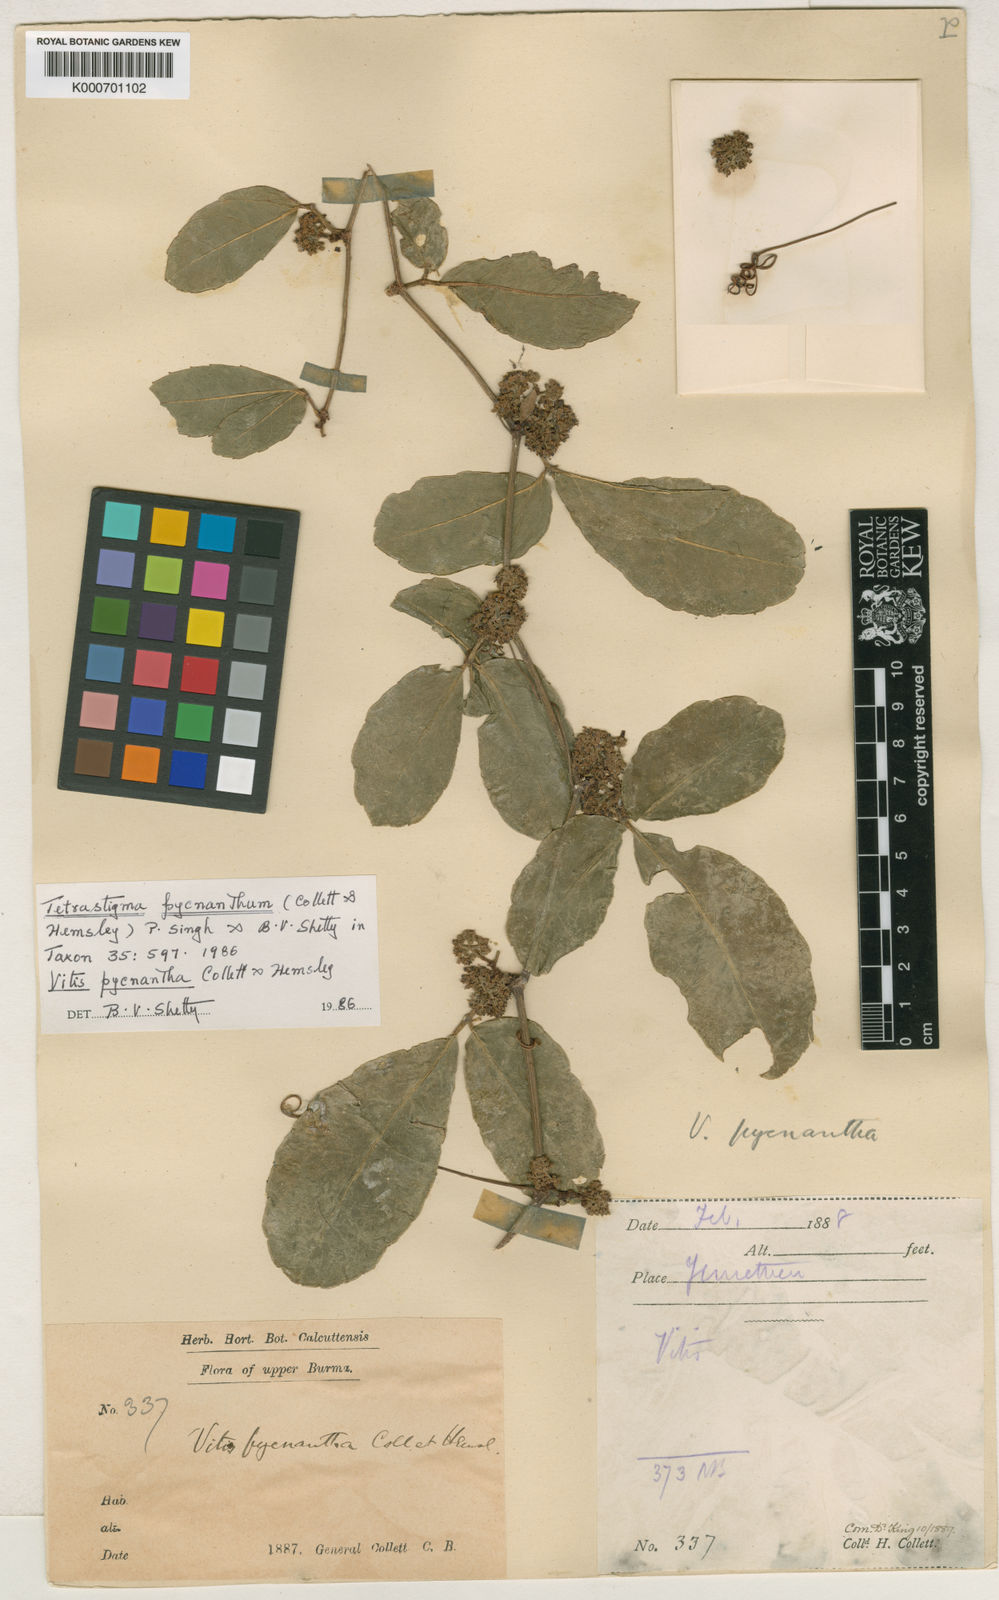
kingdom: Plantae
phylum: Tracheophyta
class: Magnoliopsida
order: Vitales
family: Vitaceae
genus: Tetrastigma
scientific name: Tetrastigma pycnanthum
